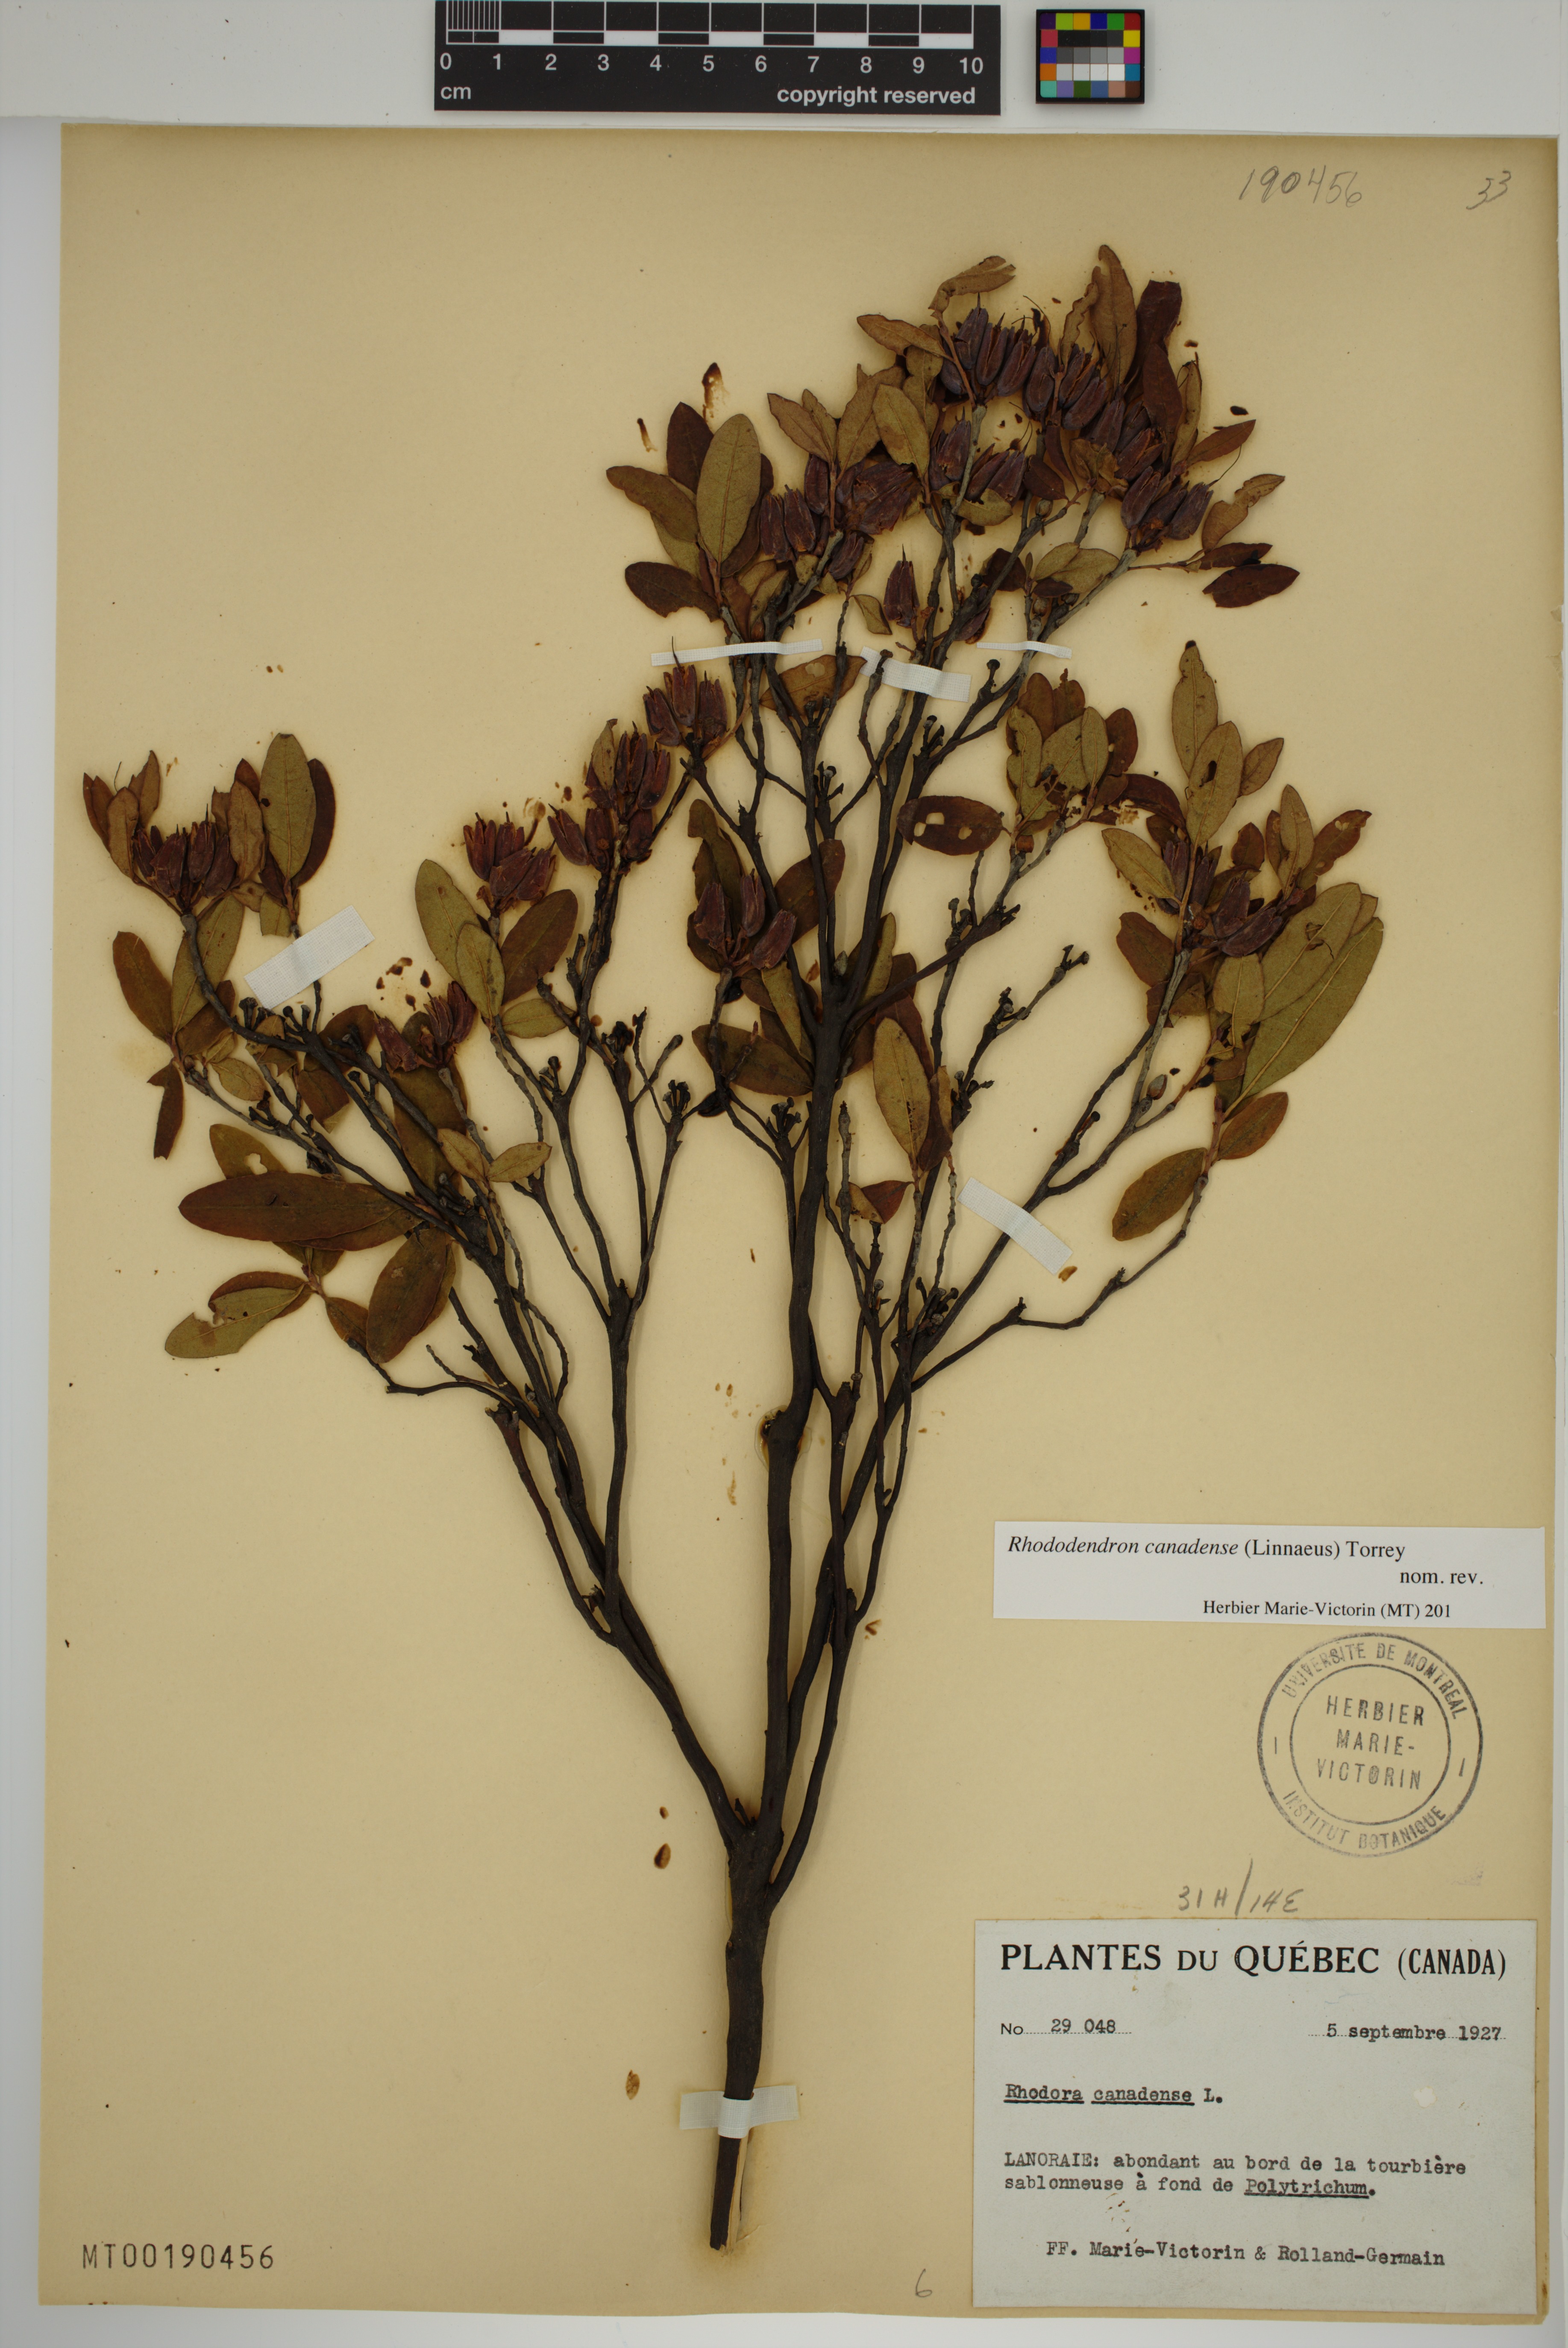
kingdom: Plantae
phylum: Tracheophyta
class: Magnoliopsida
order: Ericales
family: Ericaceae
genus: Rhododendron
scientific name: Rhododendron canadense
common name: Rhodora
